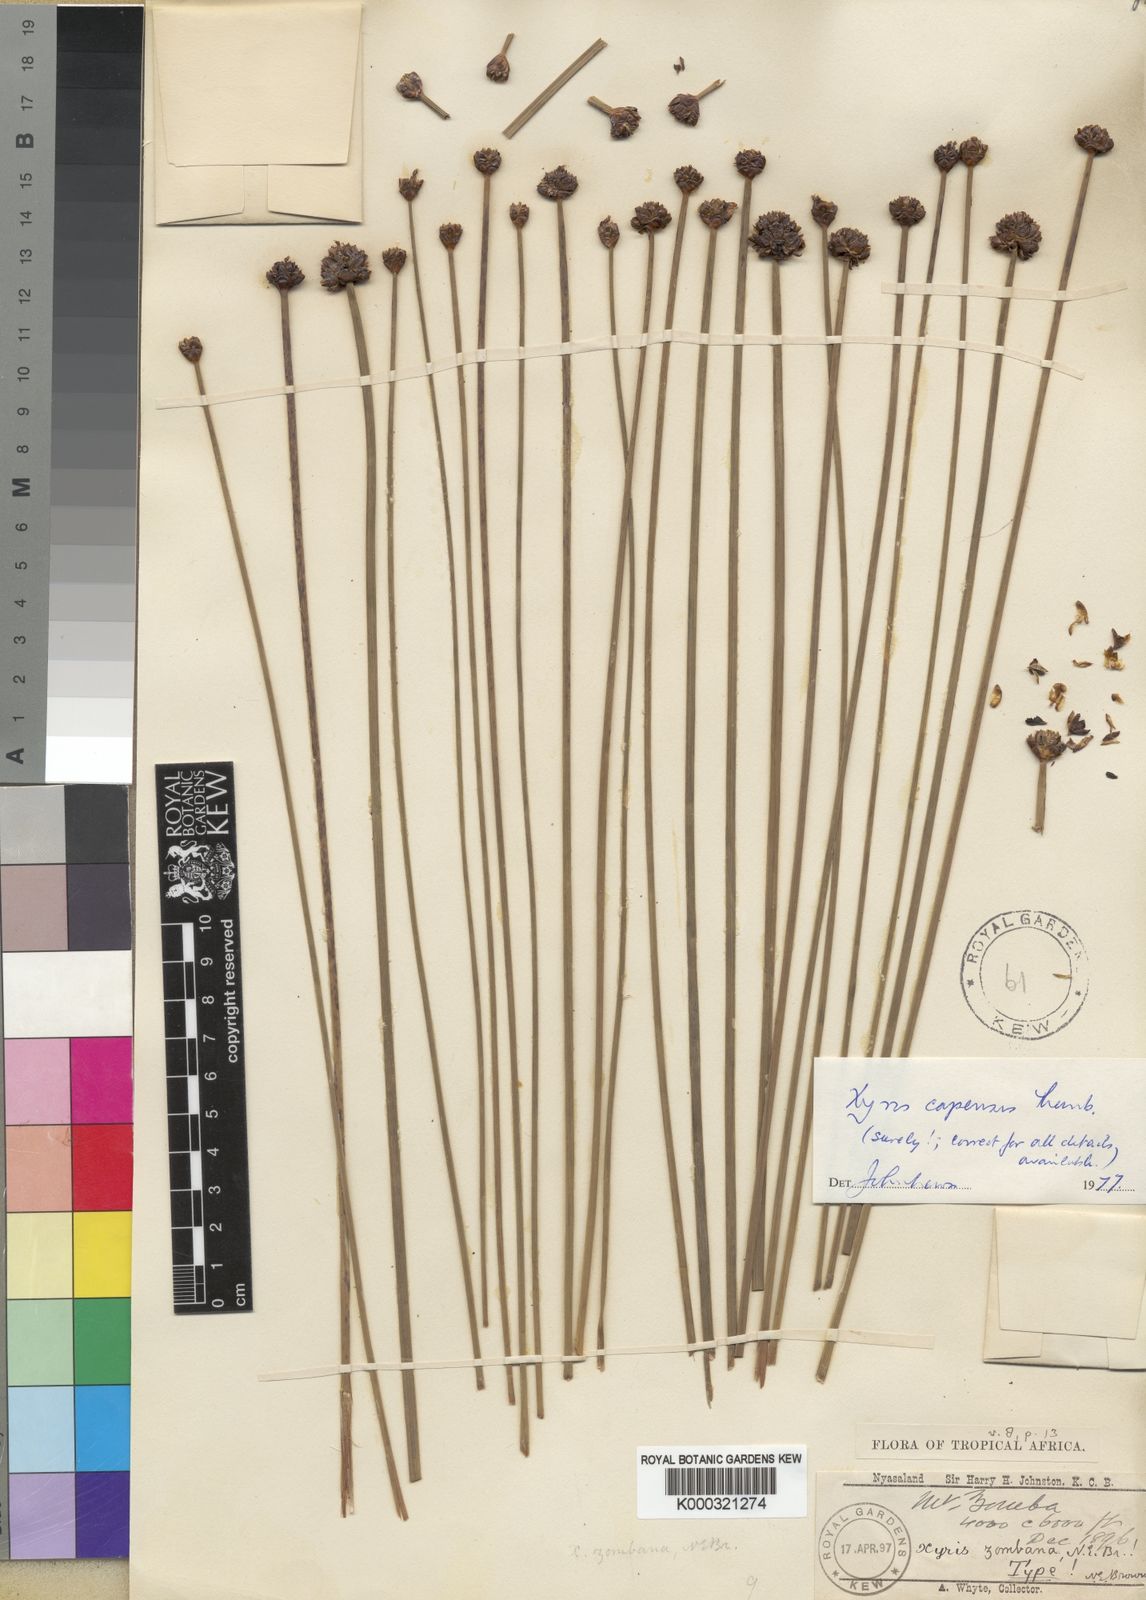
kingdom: Plantae
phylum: Tracheophyta
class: Liliopsida
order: Poales
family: Xyridaceae
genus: Xyris
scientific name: Xyris capensis
